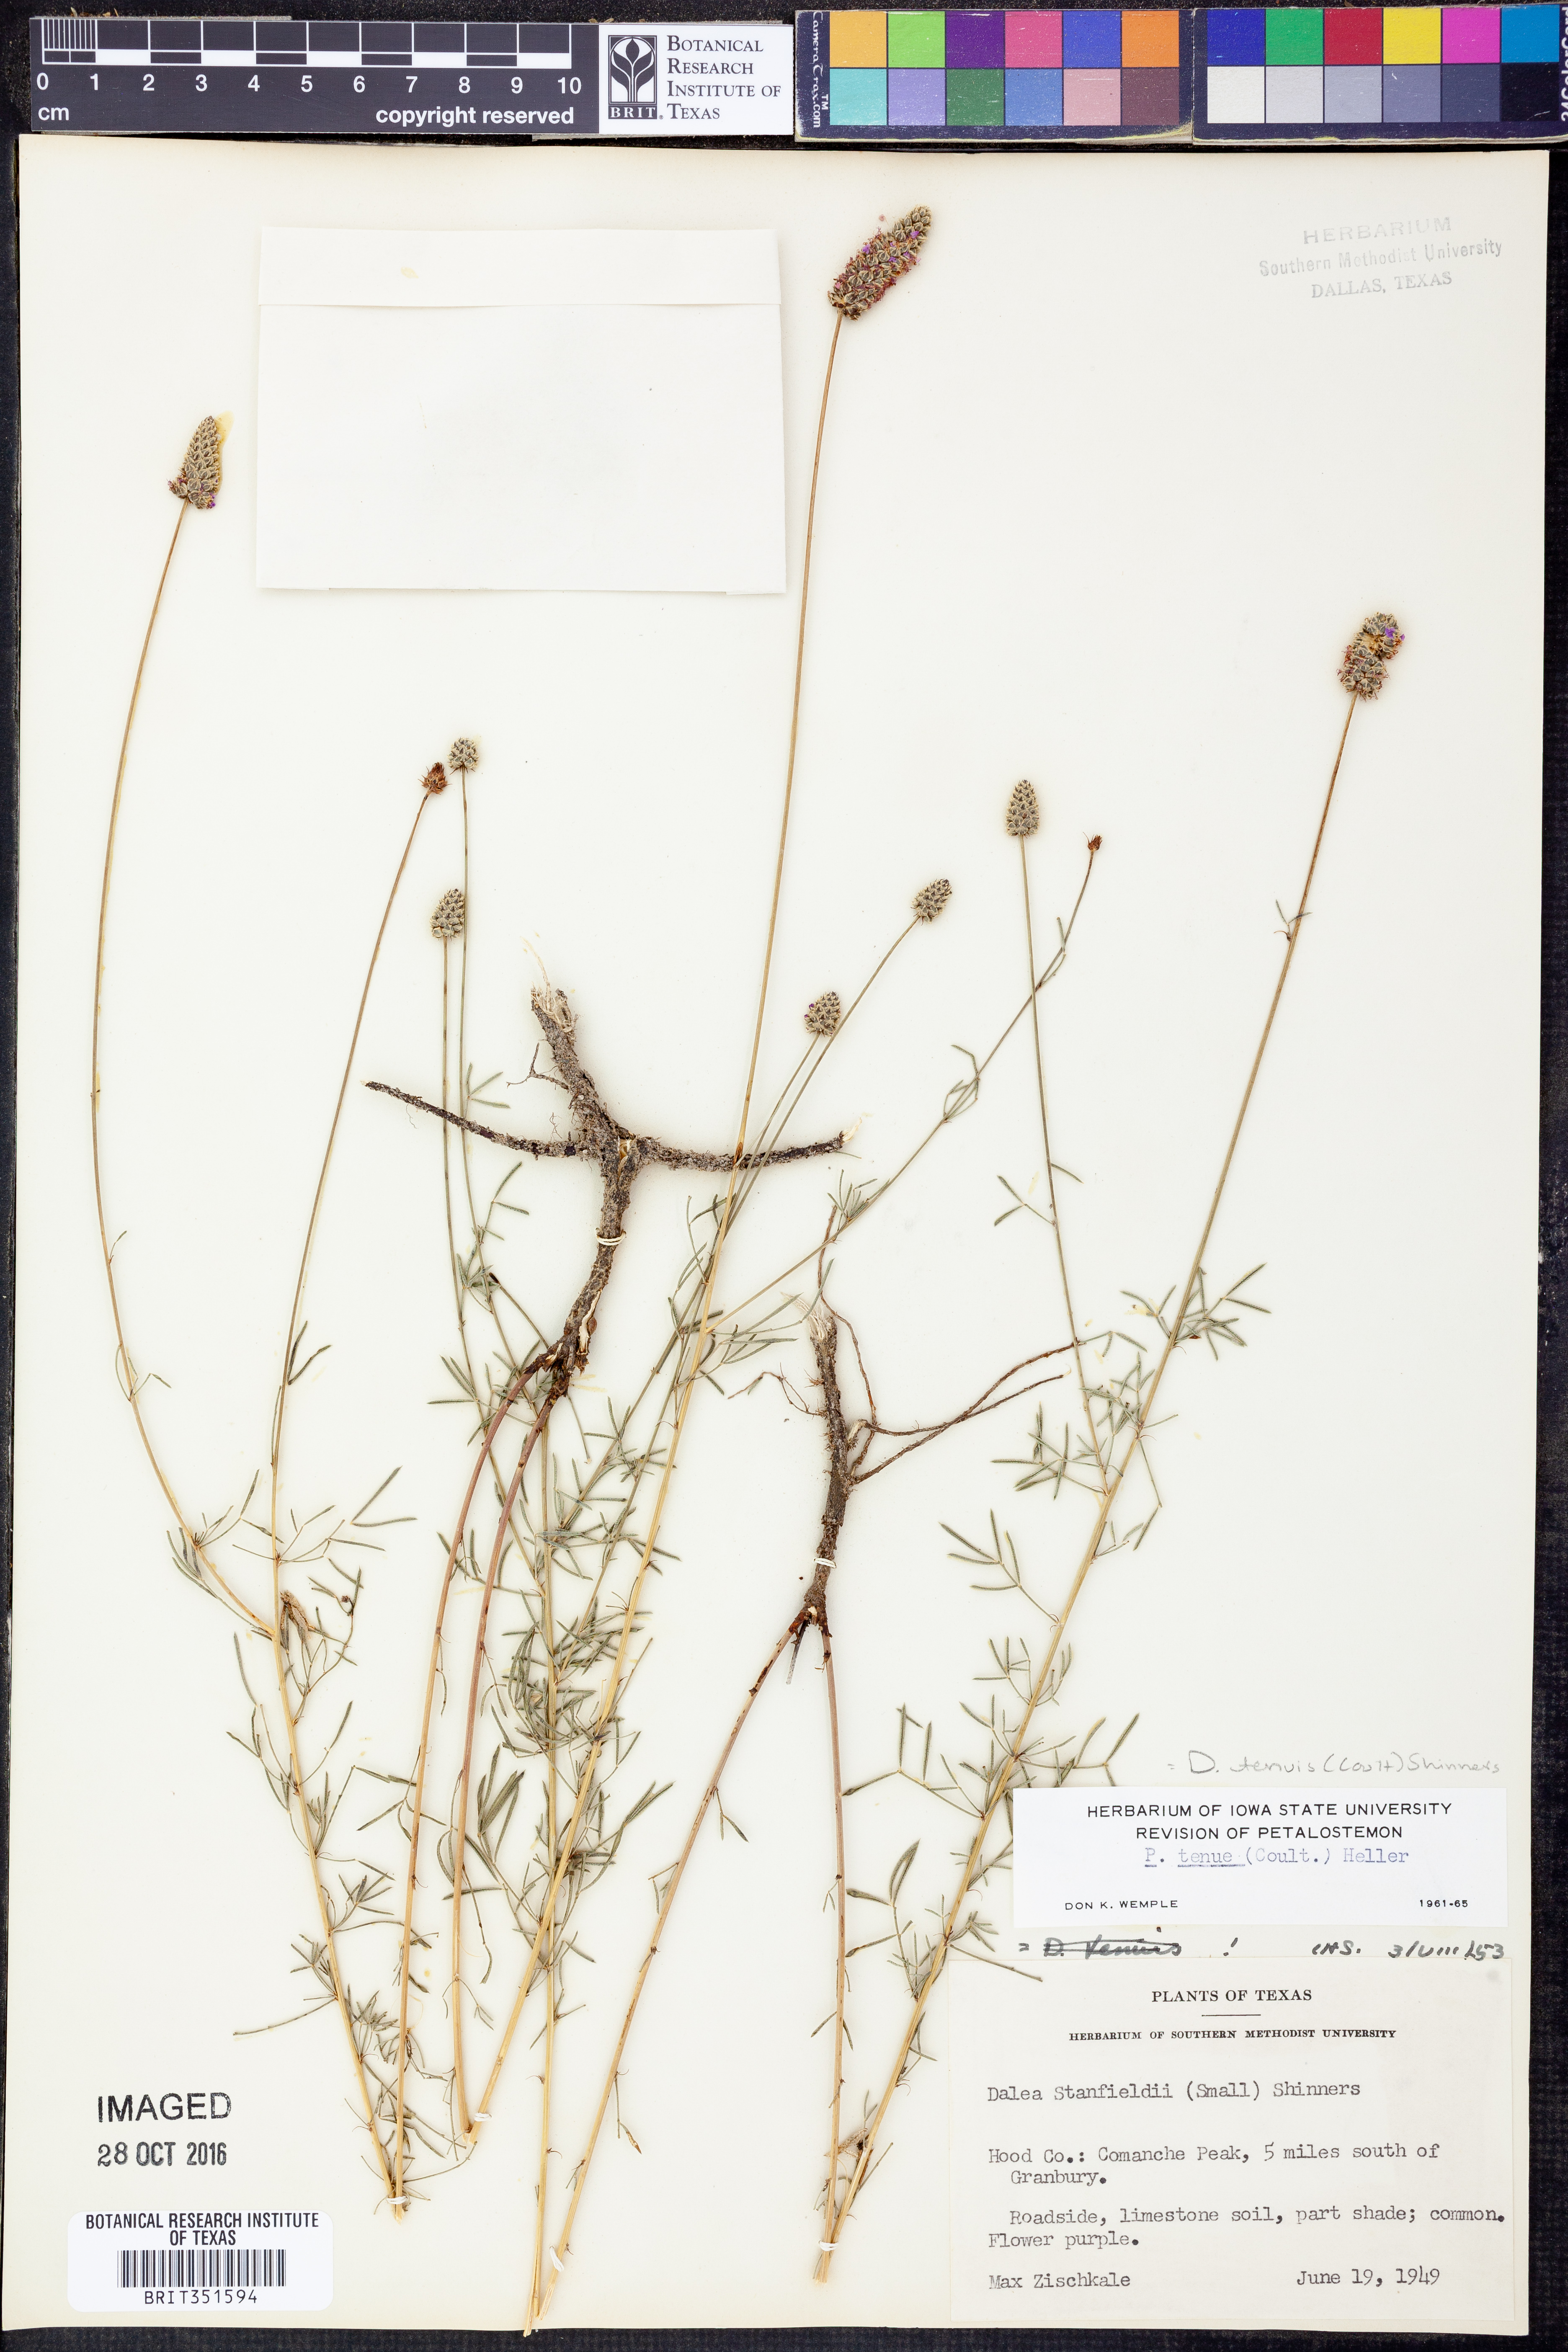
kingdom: Plantae
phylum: Tracheophyta
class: Magnoliopsida
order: Fabales
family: Fabaceae
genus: Dalea
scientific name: Dalea tenuis
